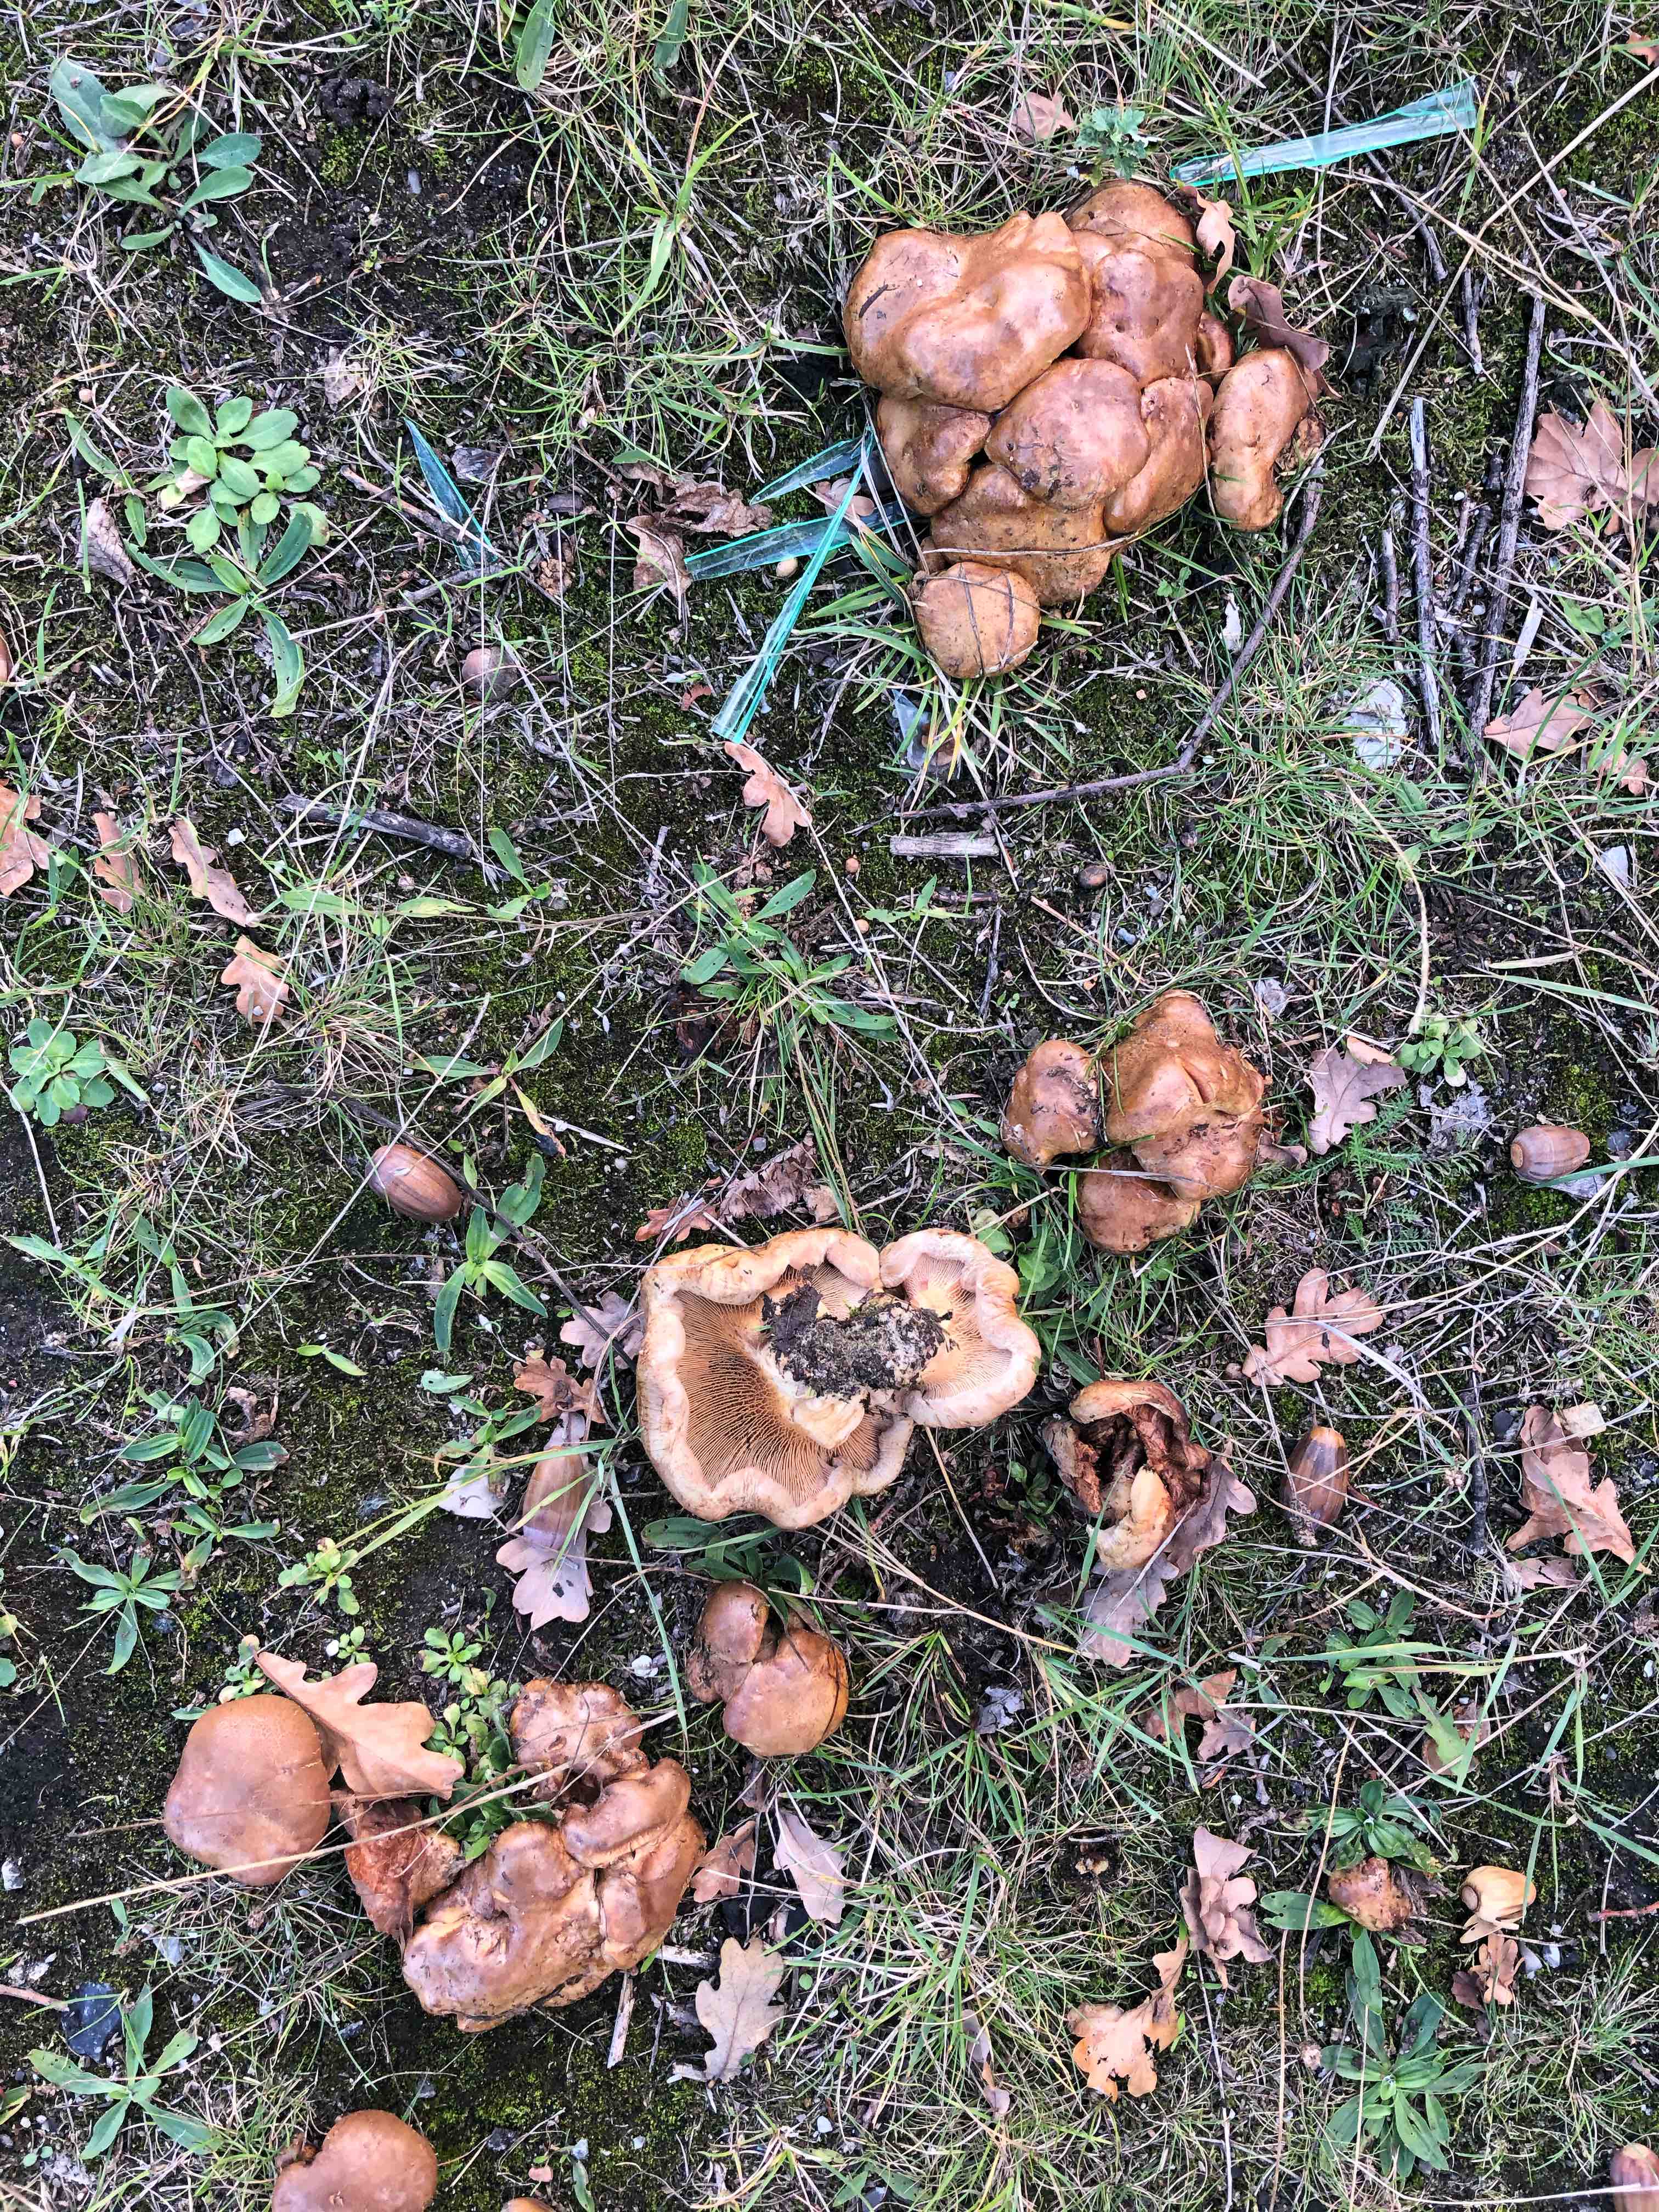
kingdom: Fungi
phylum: Basidiomycota
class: Agaricomycetes
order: Boletales
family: Paxillaceae
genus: Paxillus
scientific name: Paxillus
